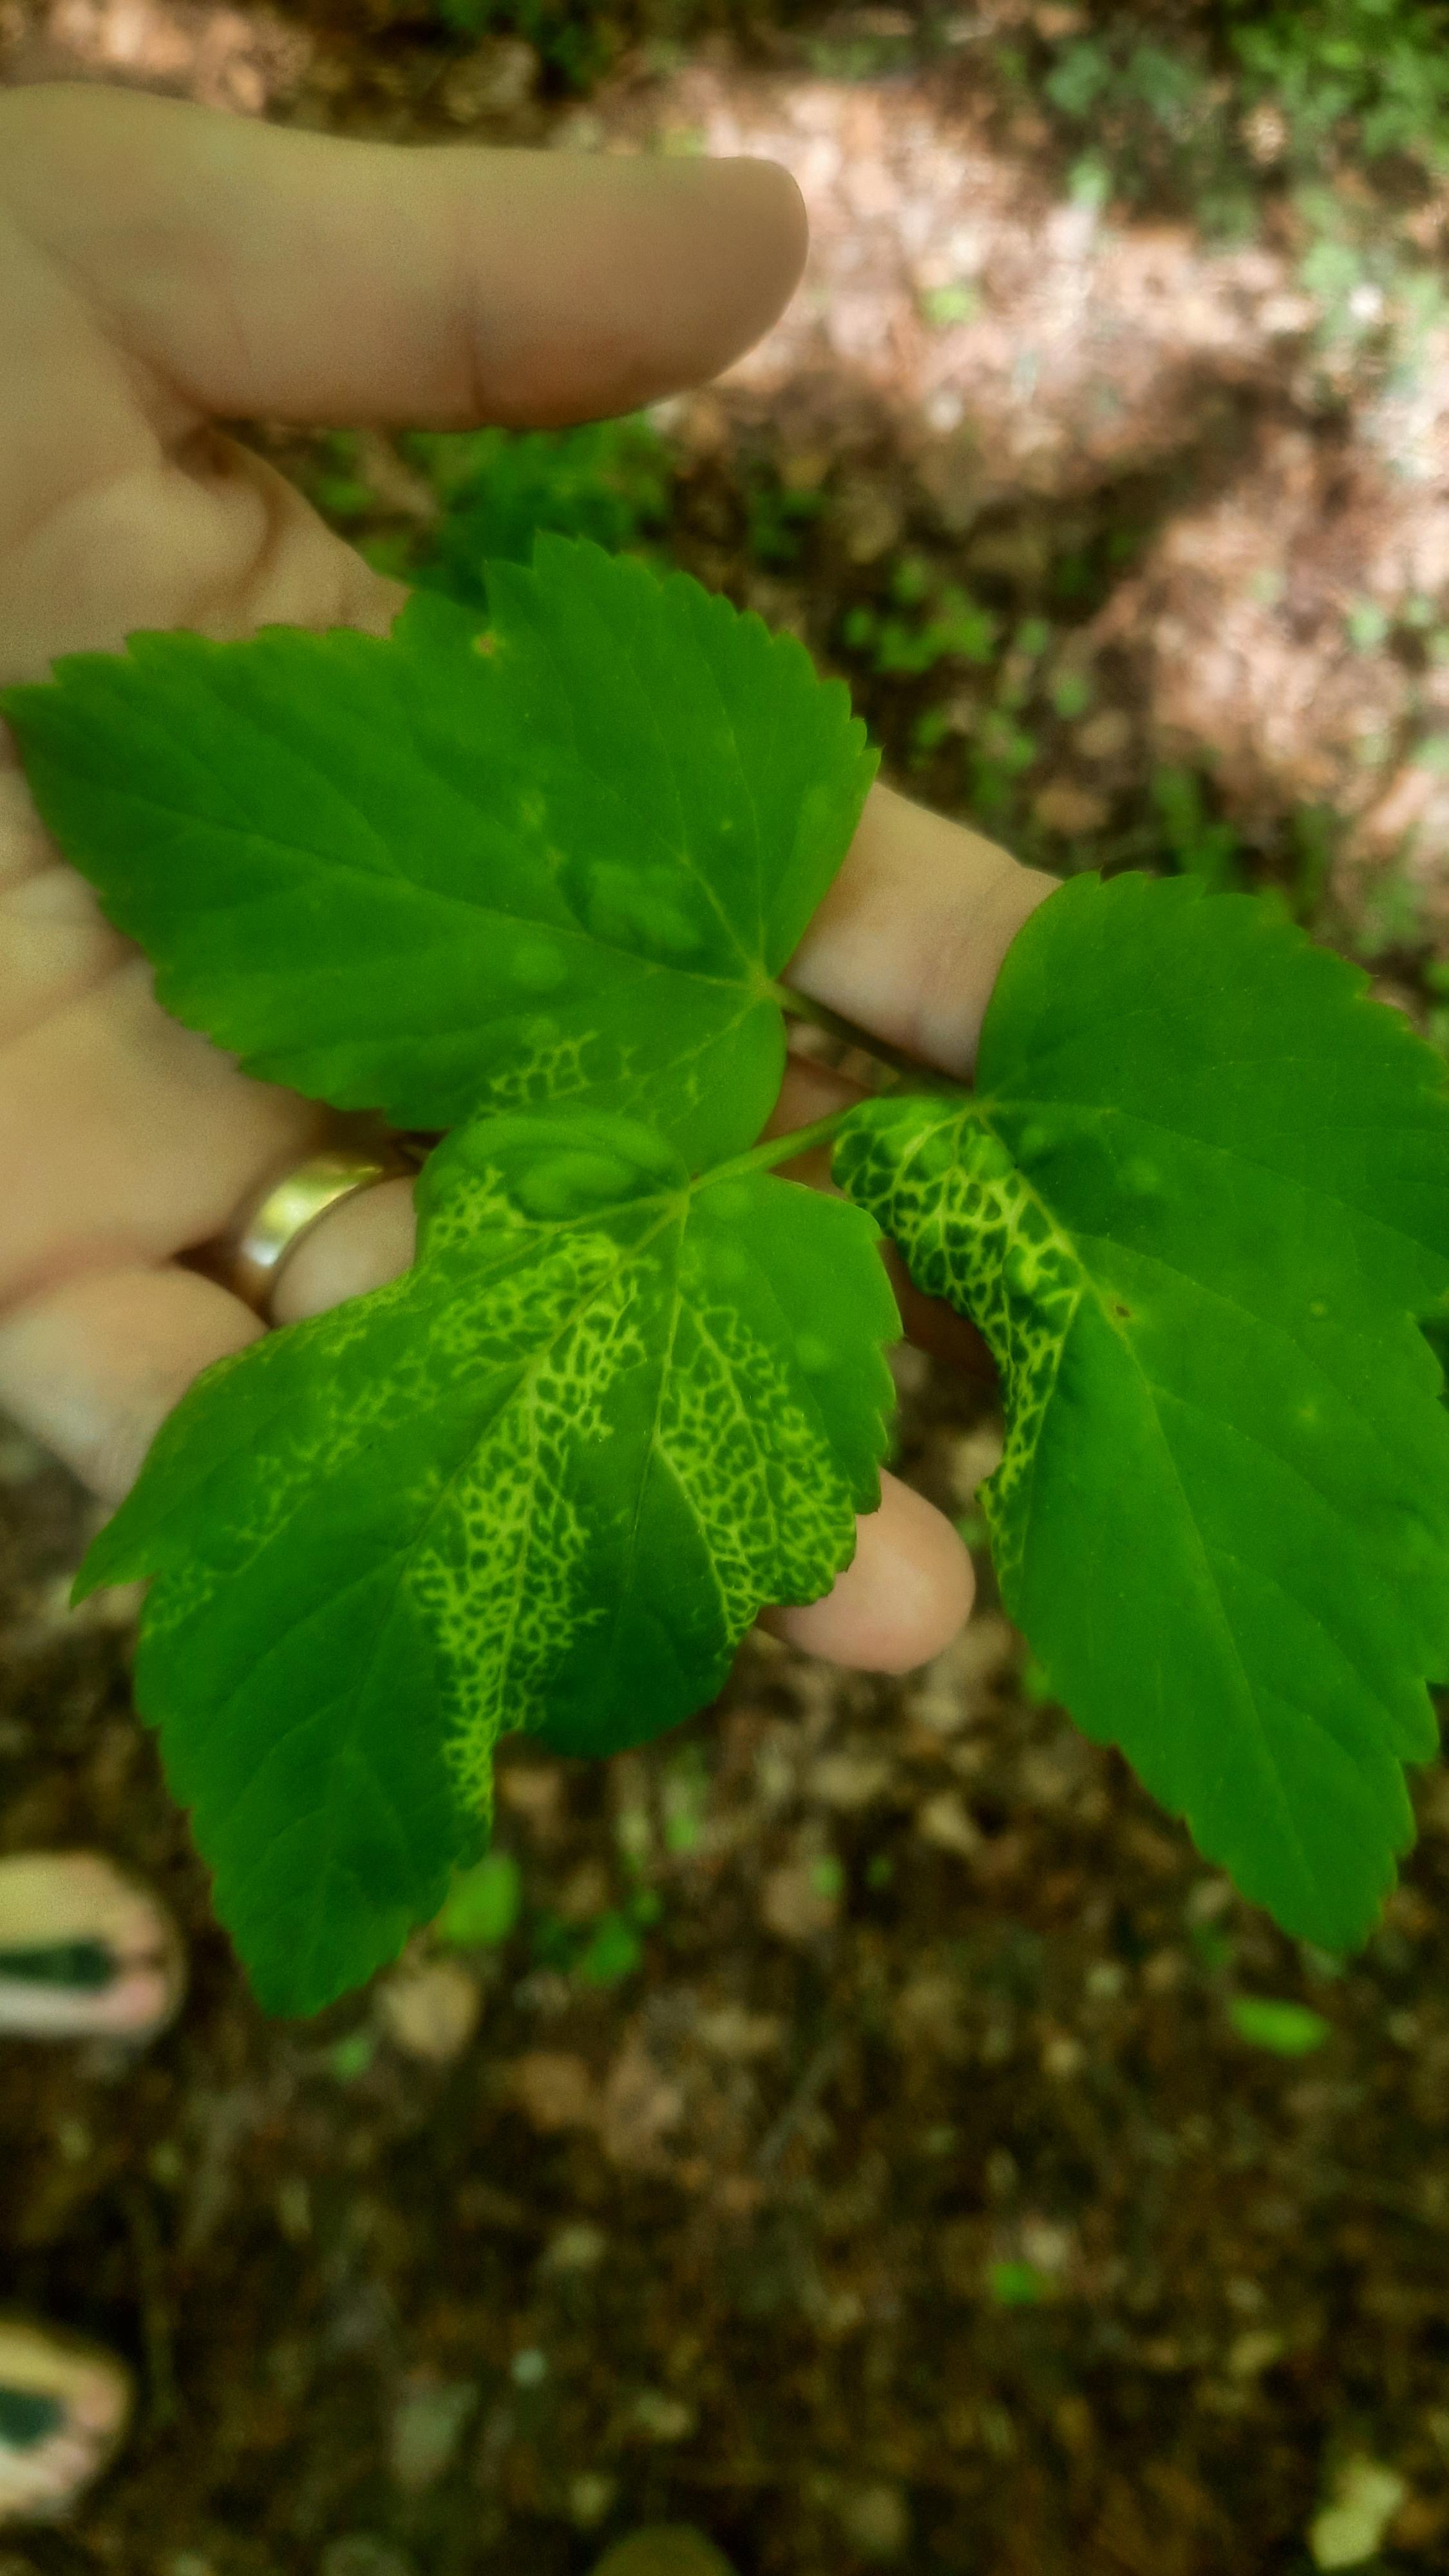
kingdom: Fungi
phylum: Ascomycota
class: Taphrinomycetes
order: Taphrinales
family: Taphrinaceae
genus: Protomyces
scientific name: Protomyces macrosporus
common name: skvalderkål-vablesæk
